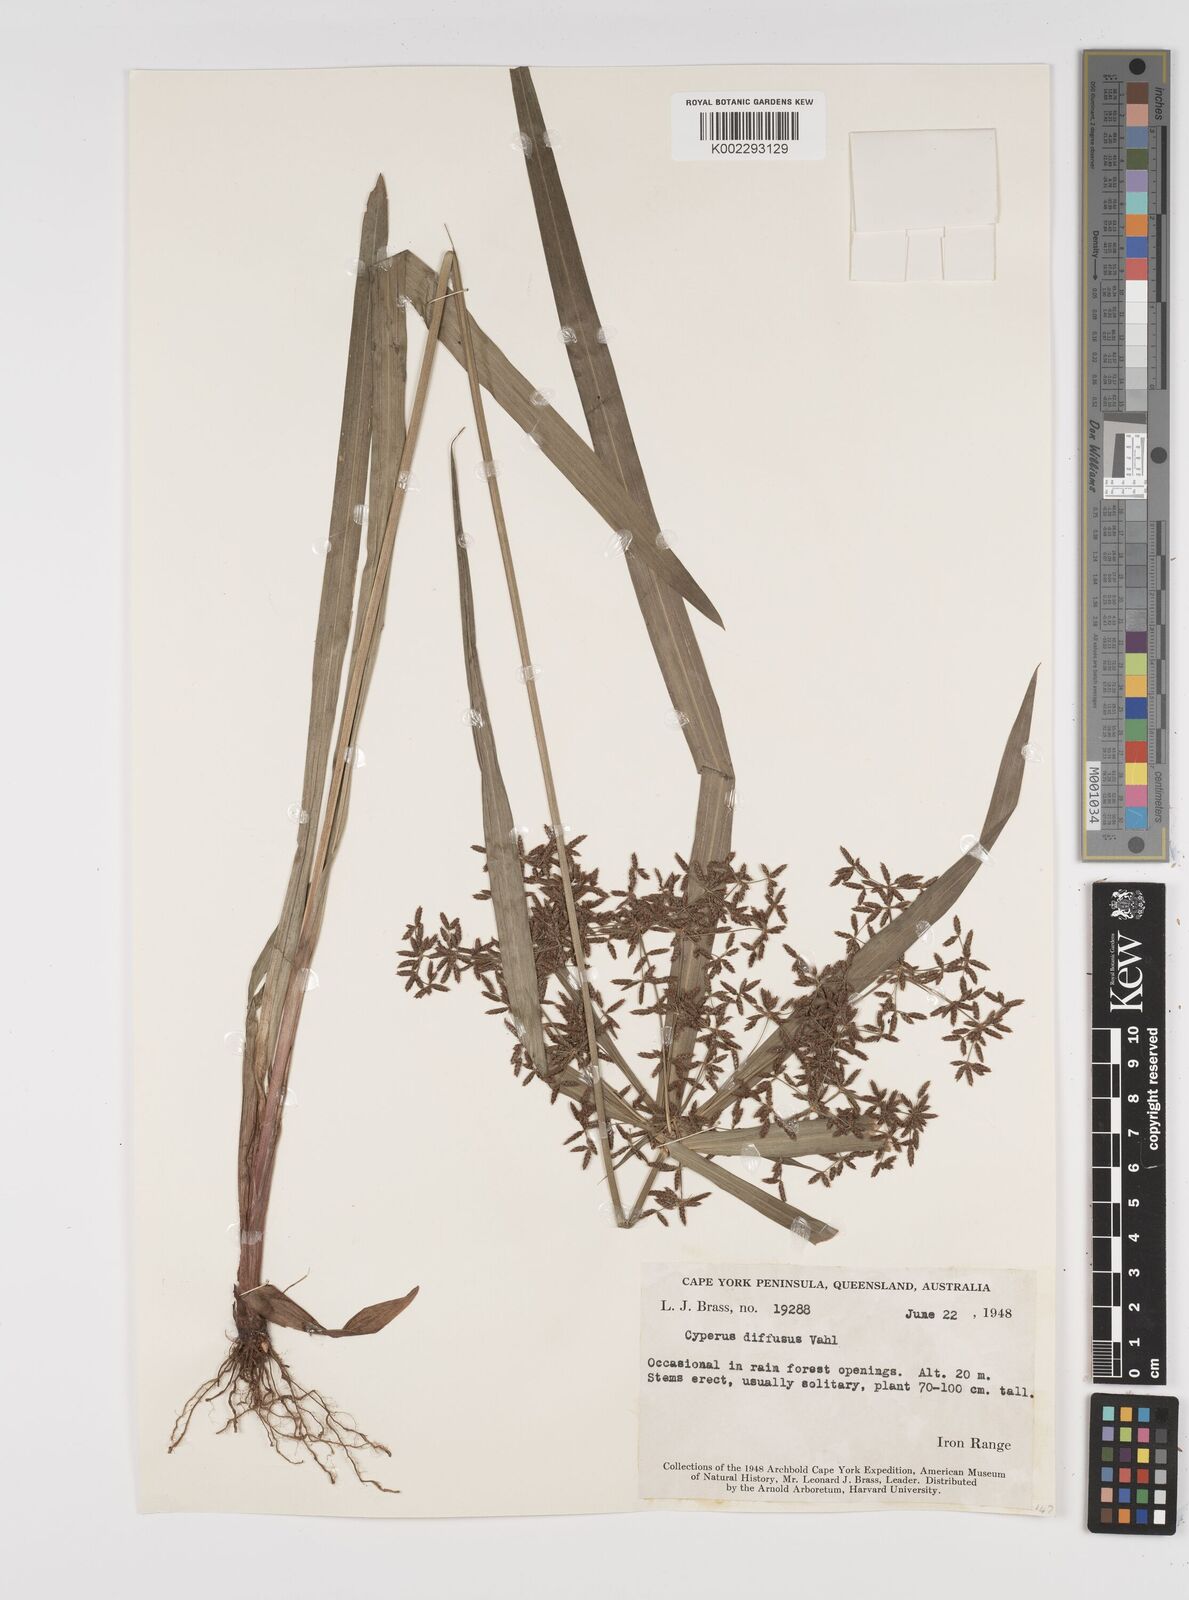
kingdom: Plantae
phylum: Tracheophyta
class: Liliopsida
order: Poales
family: Cyperaceae
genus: Cyperus
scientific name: Cyperus laxus
